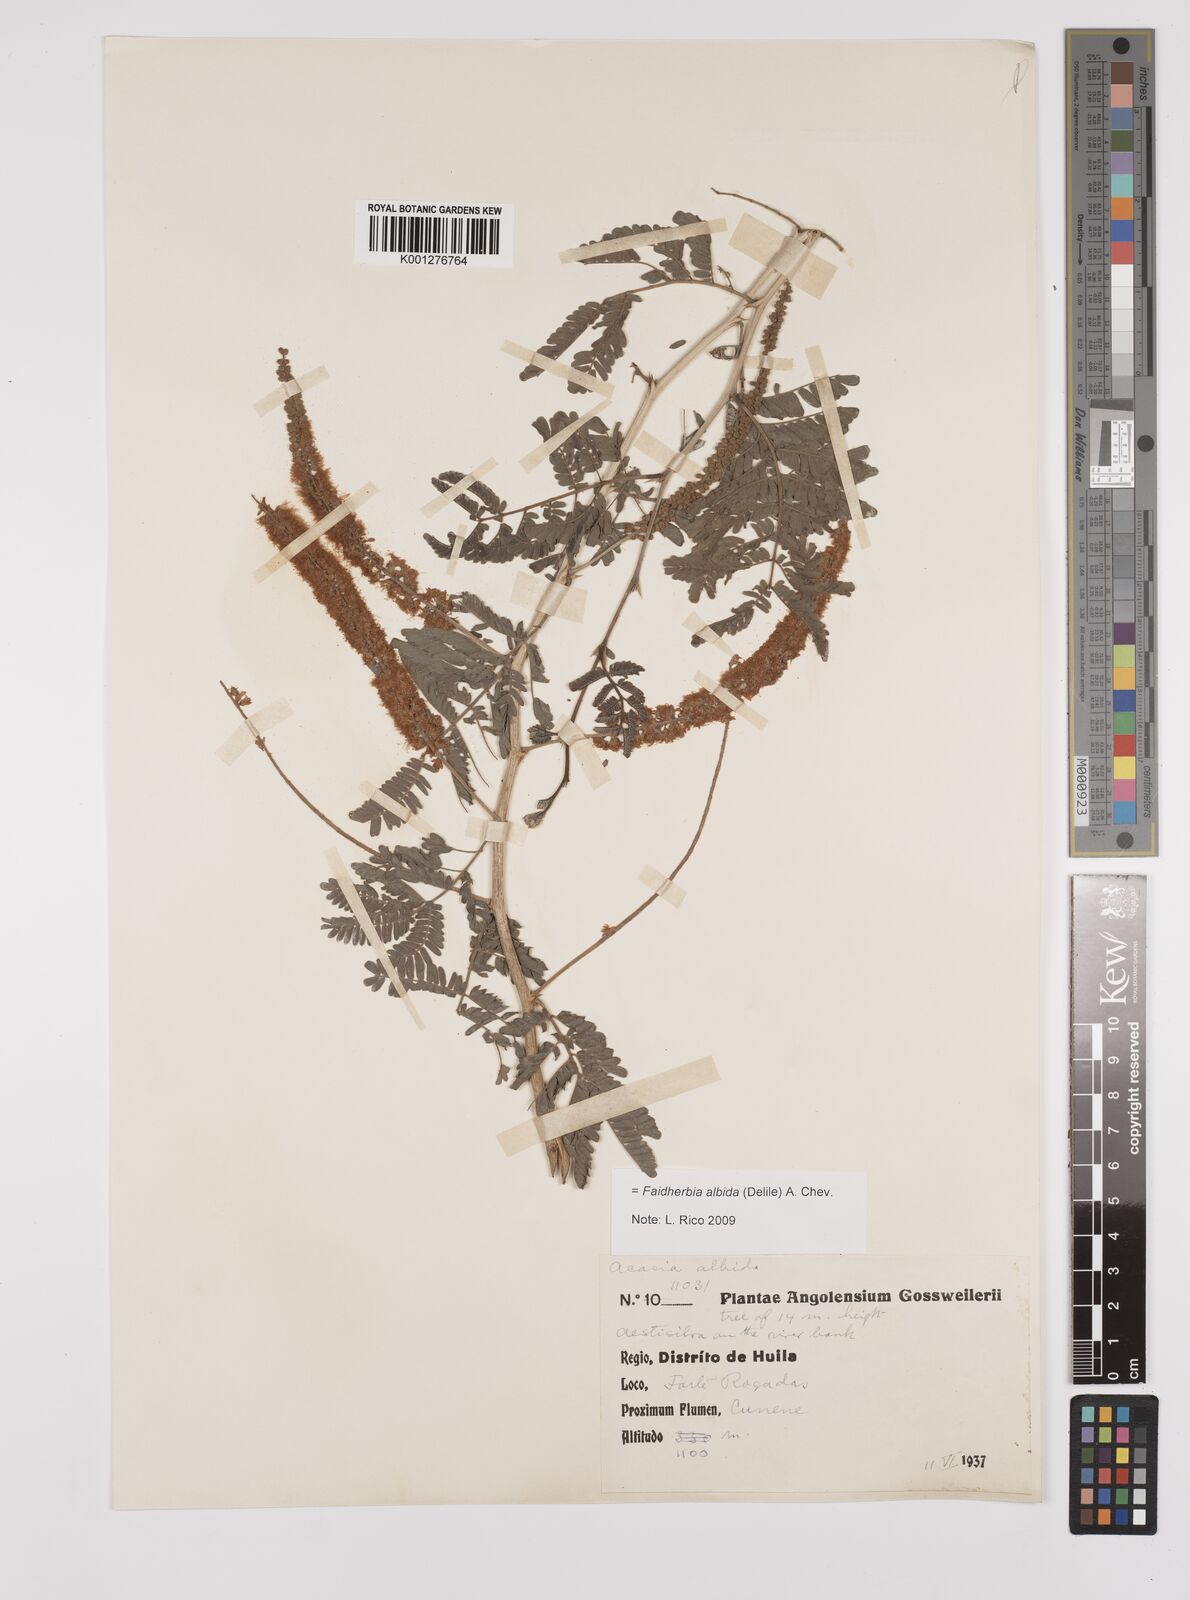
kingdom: Plantae
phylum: Tracheophyta
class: Magnoliopsida
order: Fabales
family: Fabaceae
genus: Faidherbia
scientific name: Faidherbia albida
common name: Anatree
